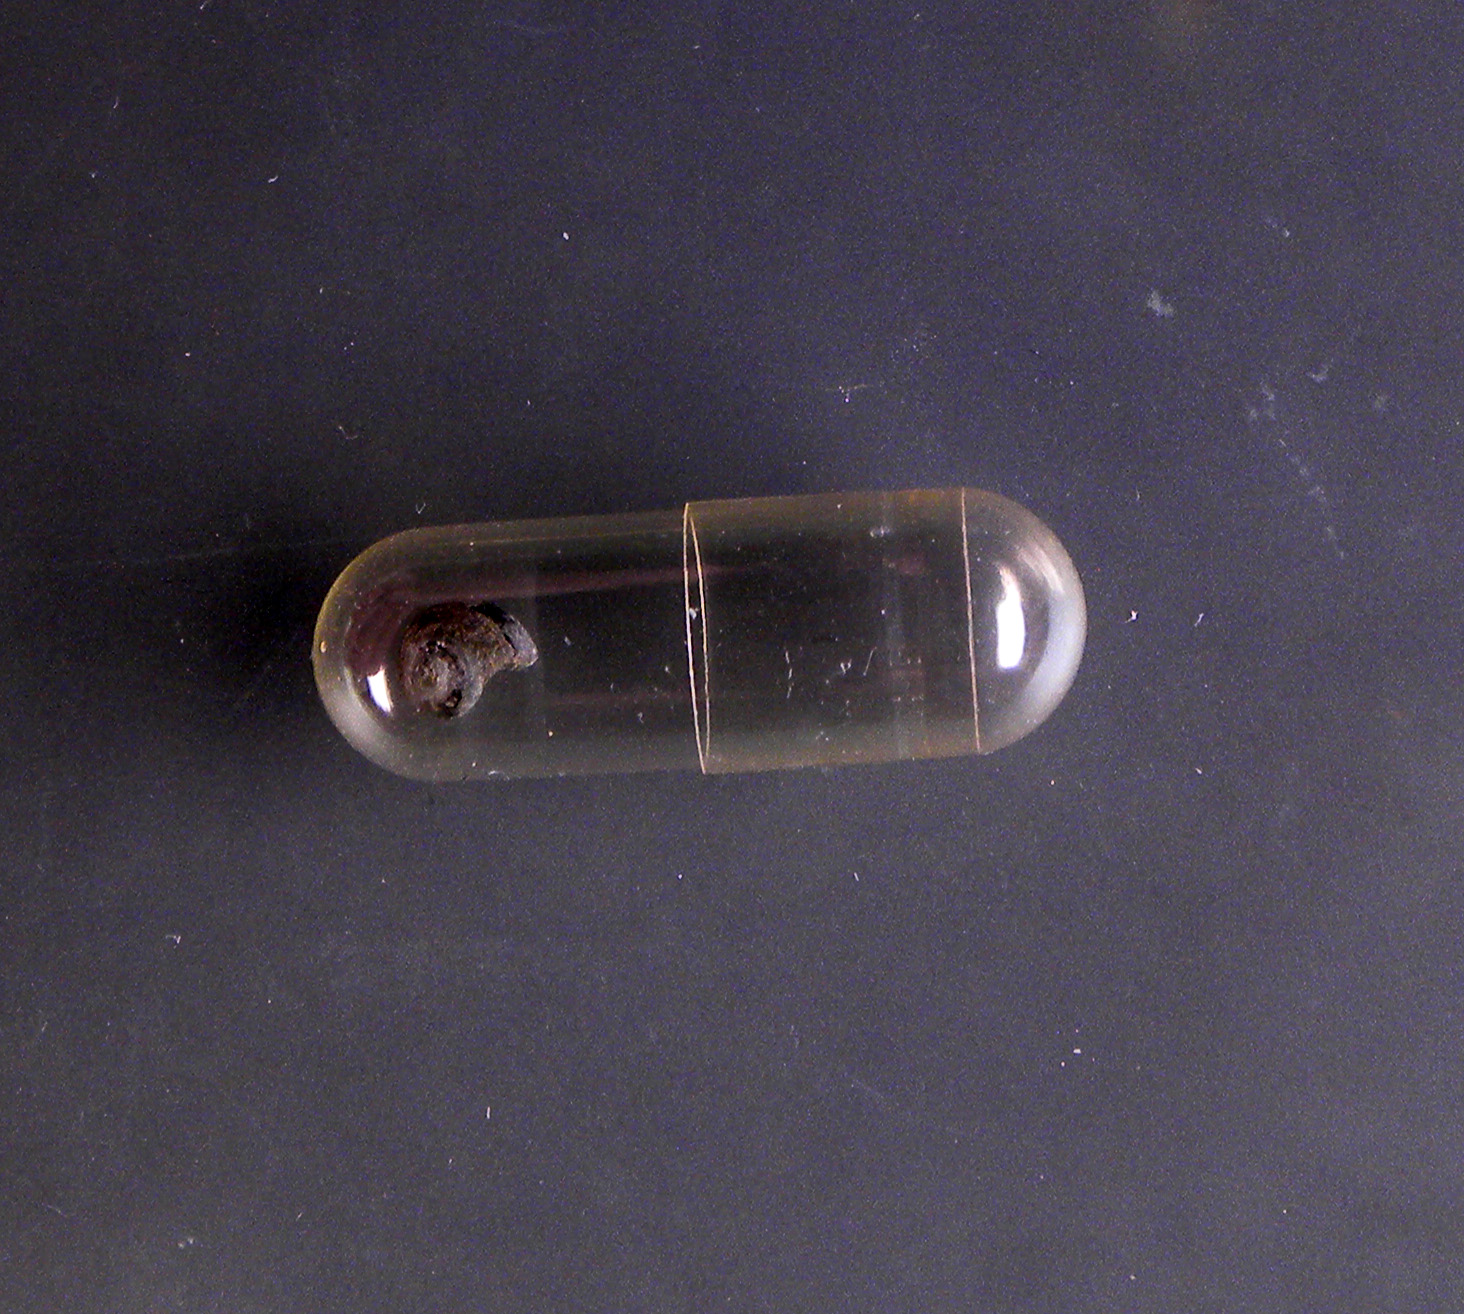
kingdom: Animalia
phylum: Mollusca
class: Gastropoda
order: Littorinimorpha
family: Littorinidae
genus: Lacuna
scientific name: Lacuna vincta
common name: Banded chink shell
